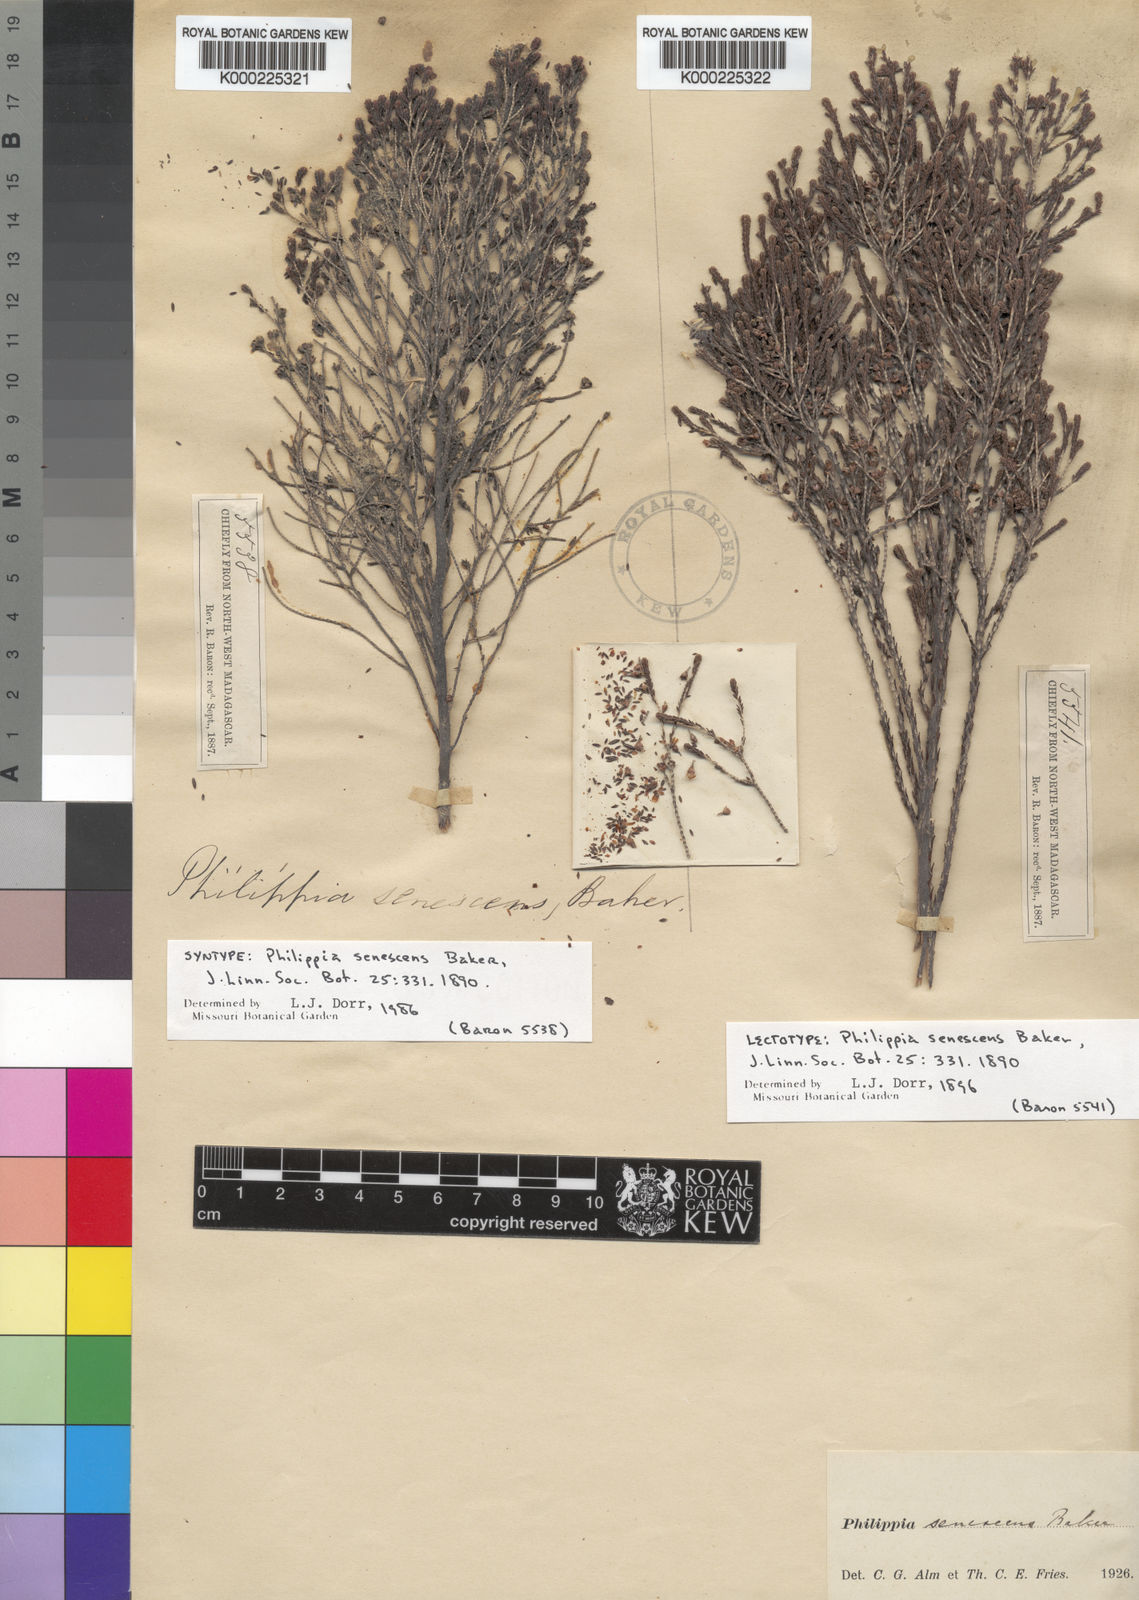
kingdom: Plantae
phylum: Tracheophyta
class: Magnoliopsida
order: Ericales
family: Ericaceae
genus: Erica
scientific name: Erica cryptoclada
